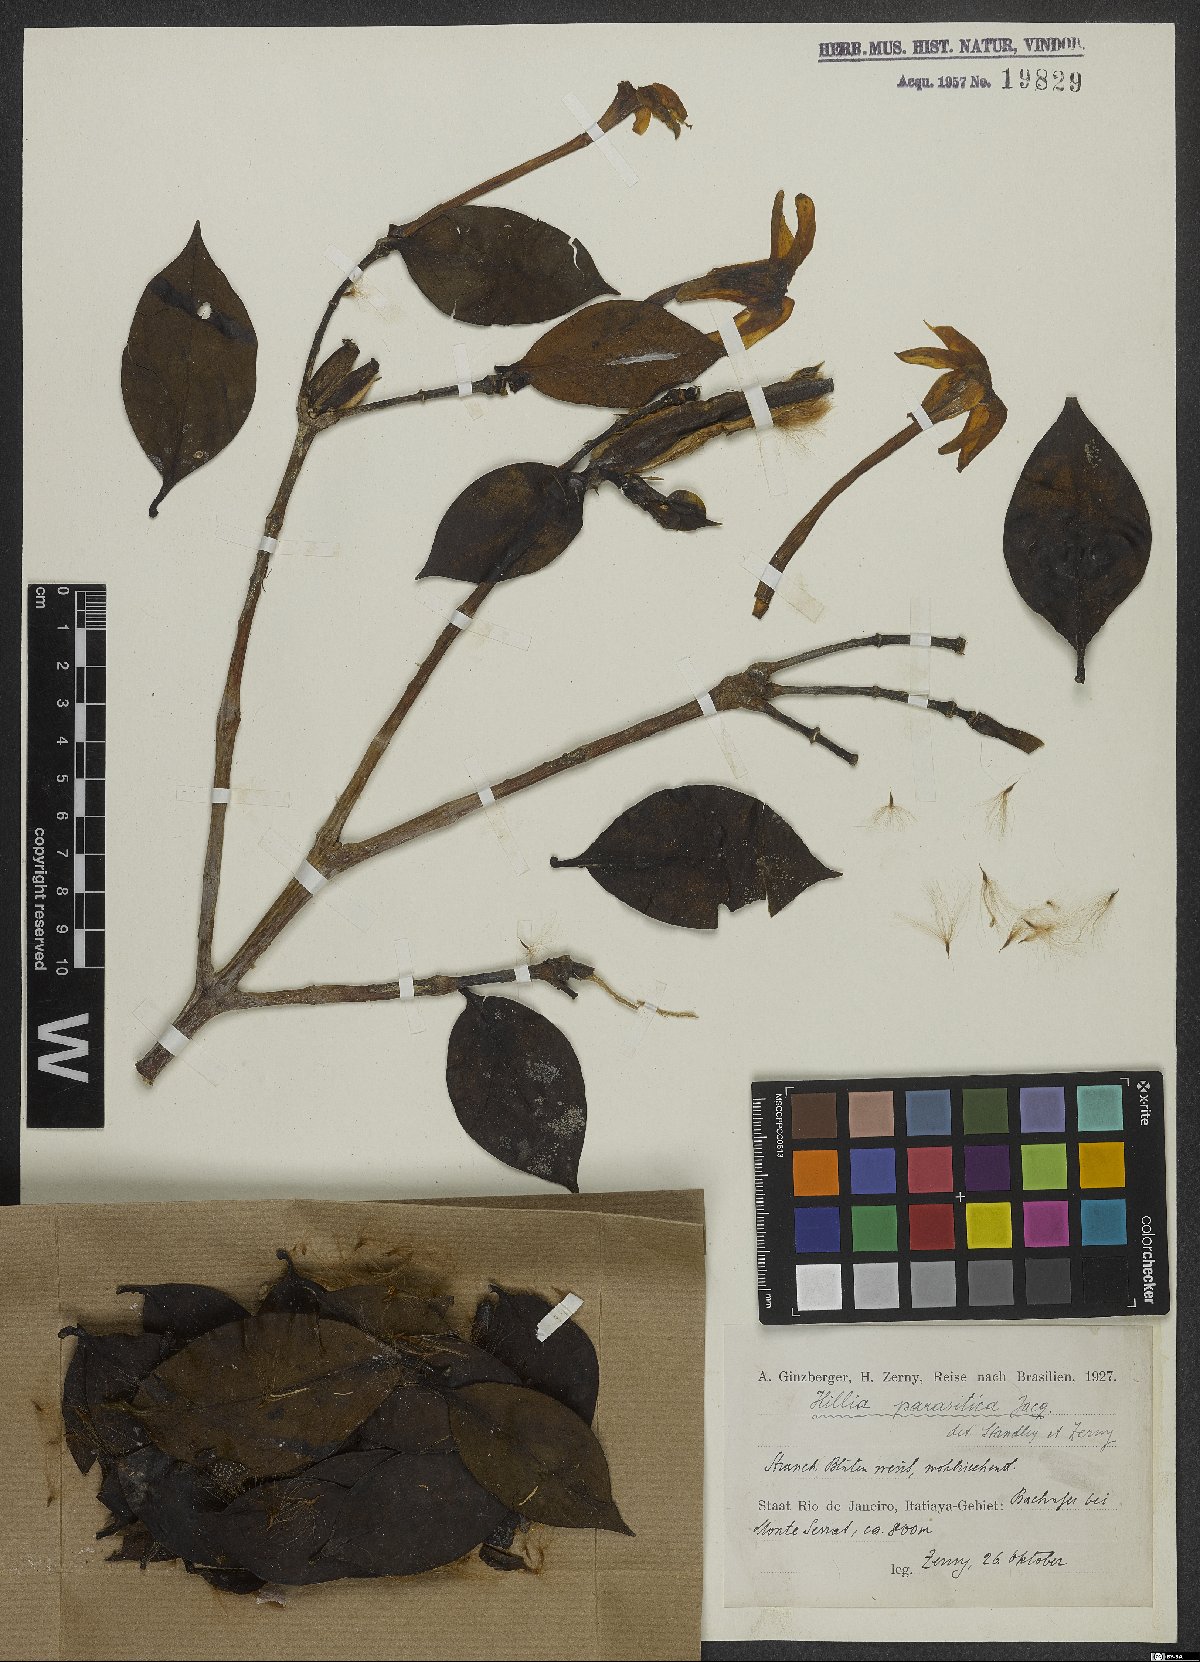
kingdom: Plantae
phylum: Tracheophyta
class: Magnoliopsida
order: Gentianales
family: Rubiaceae
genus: Hillia
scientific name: Hillia parasitica
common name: Morning star
